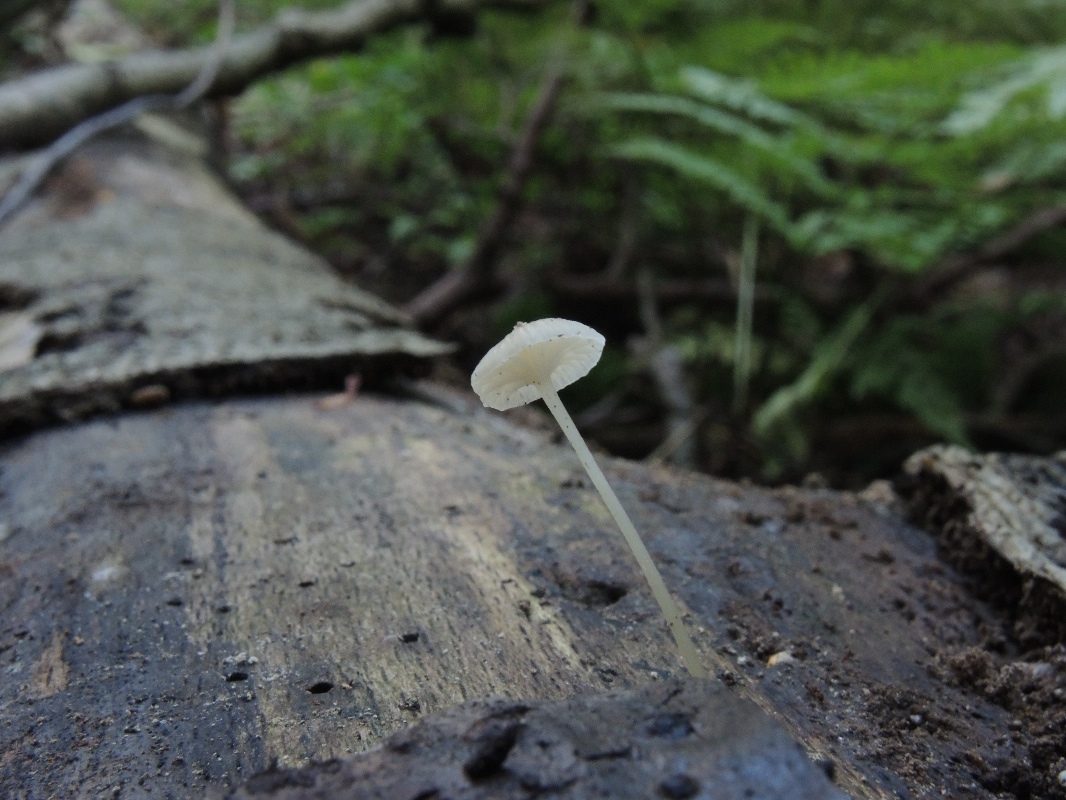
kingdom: Fungi
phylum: Basidiomycota
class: Agaricomycetes
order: Agaricales
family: Porotheleaceae
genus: Phloeomana
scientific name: Phloeomana speirea
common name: kvist-huesvamp
